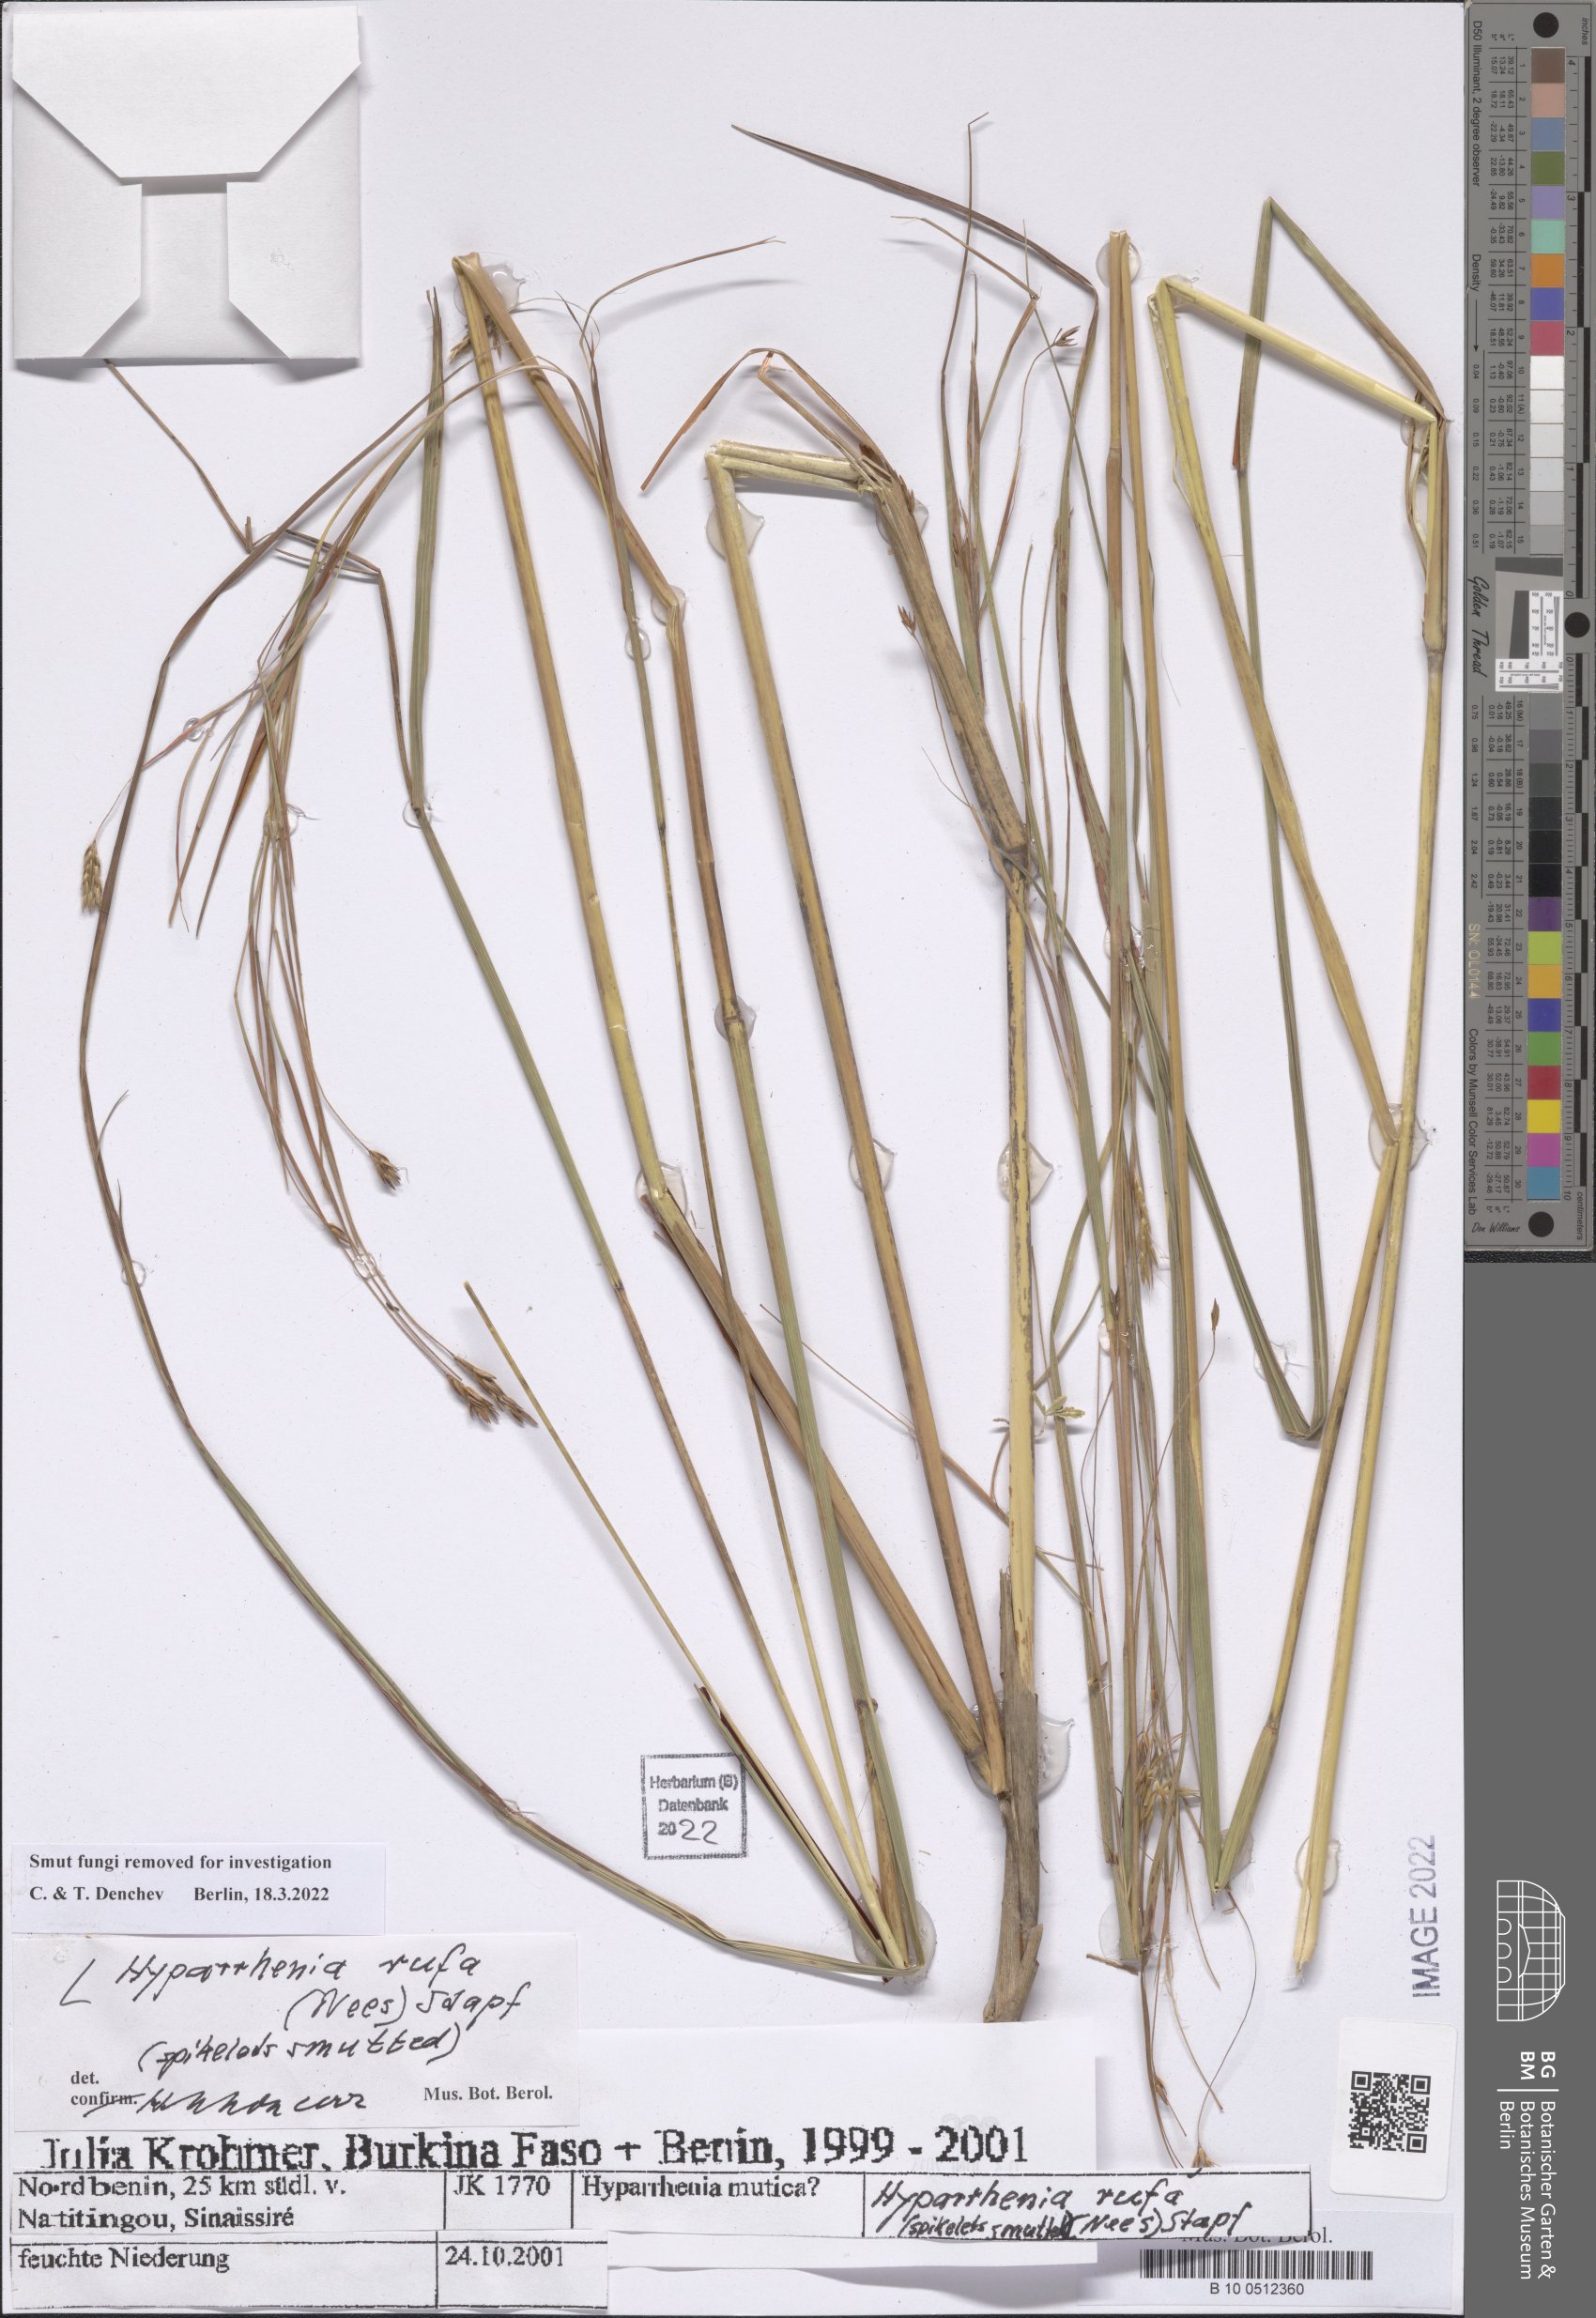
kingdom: Plantae
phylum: Tracheophyta
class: Liliopsida
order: Poales
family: Poaceae
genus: Hyparrhenia
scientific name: Hyparrhenia rufa
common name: Jaraguagrass
